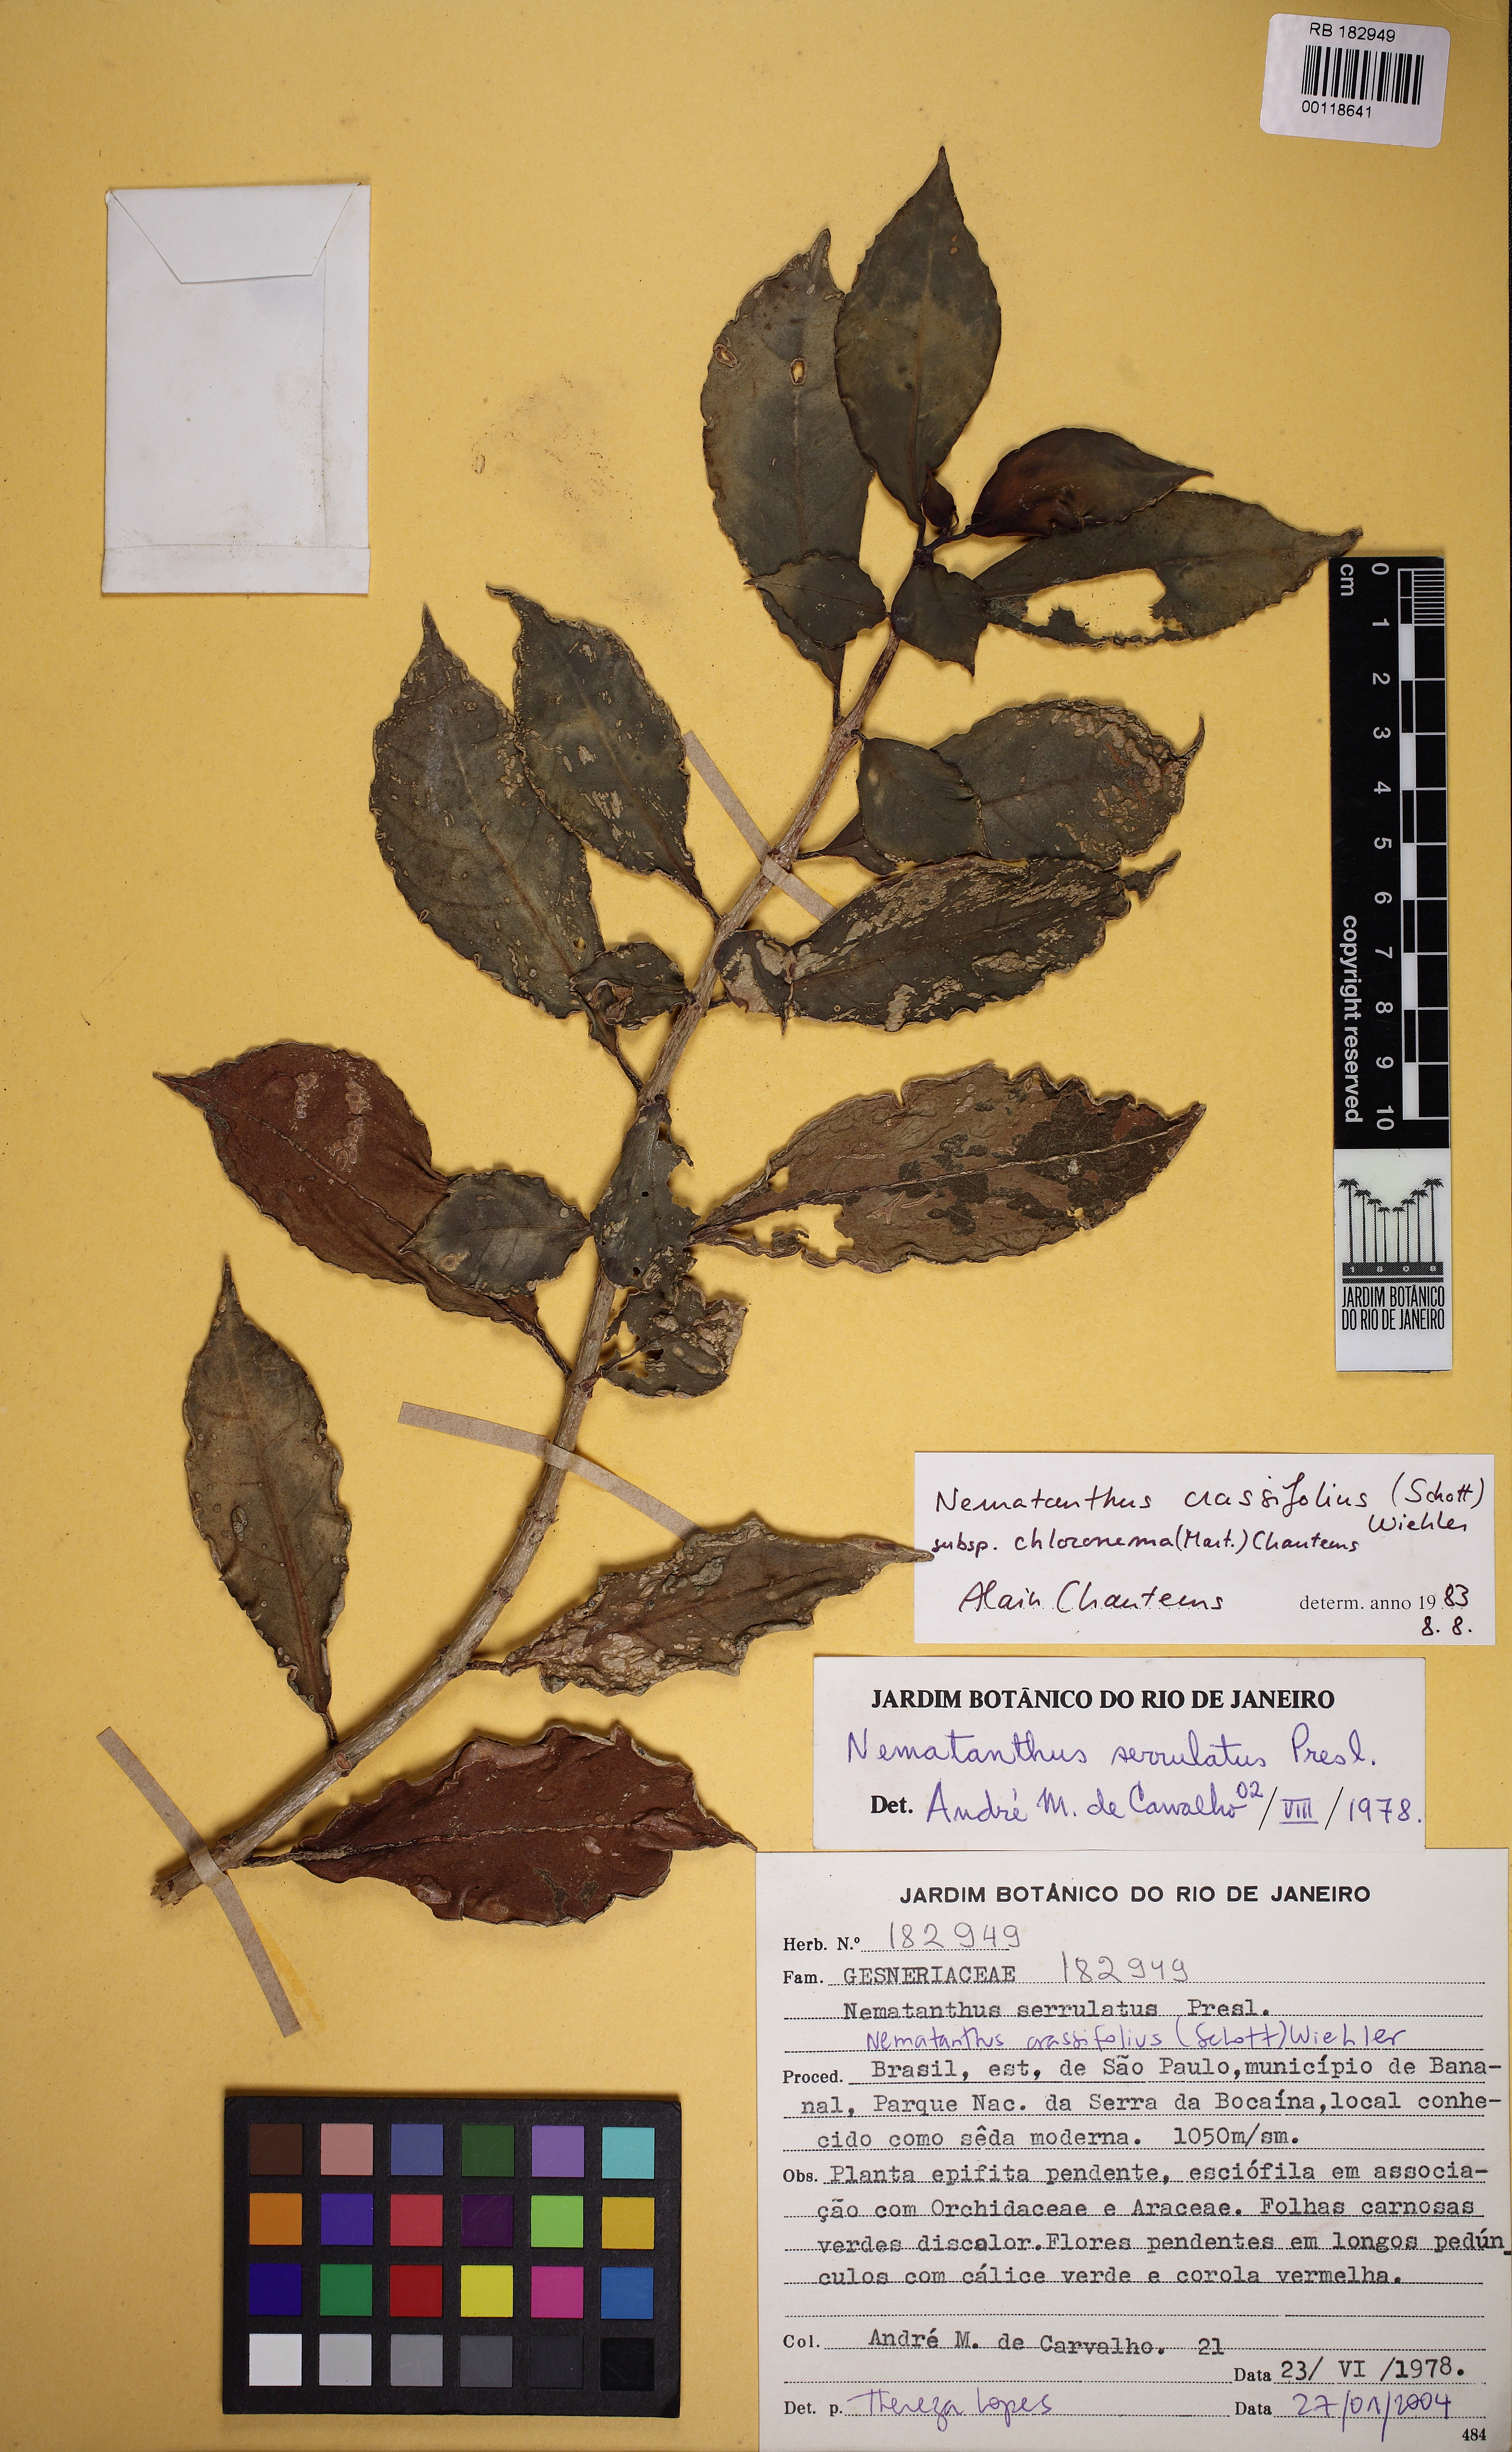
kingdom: Plantae
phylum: Tracheophyta
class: Magnoliopsida
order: Lamiales
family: Gesneriaceae
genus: Nematanthus
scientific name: Nematanthus crassifolius
